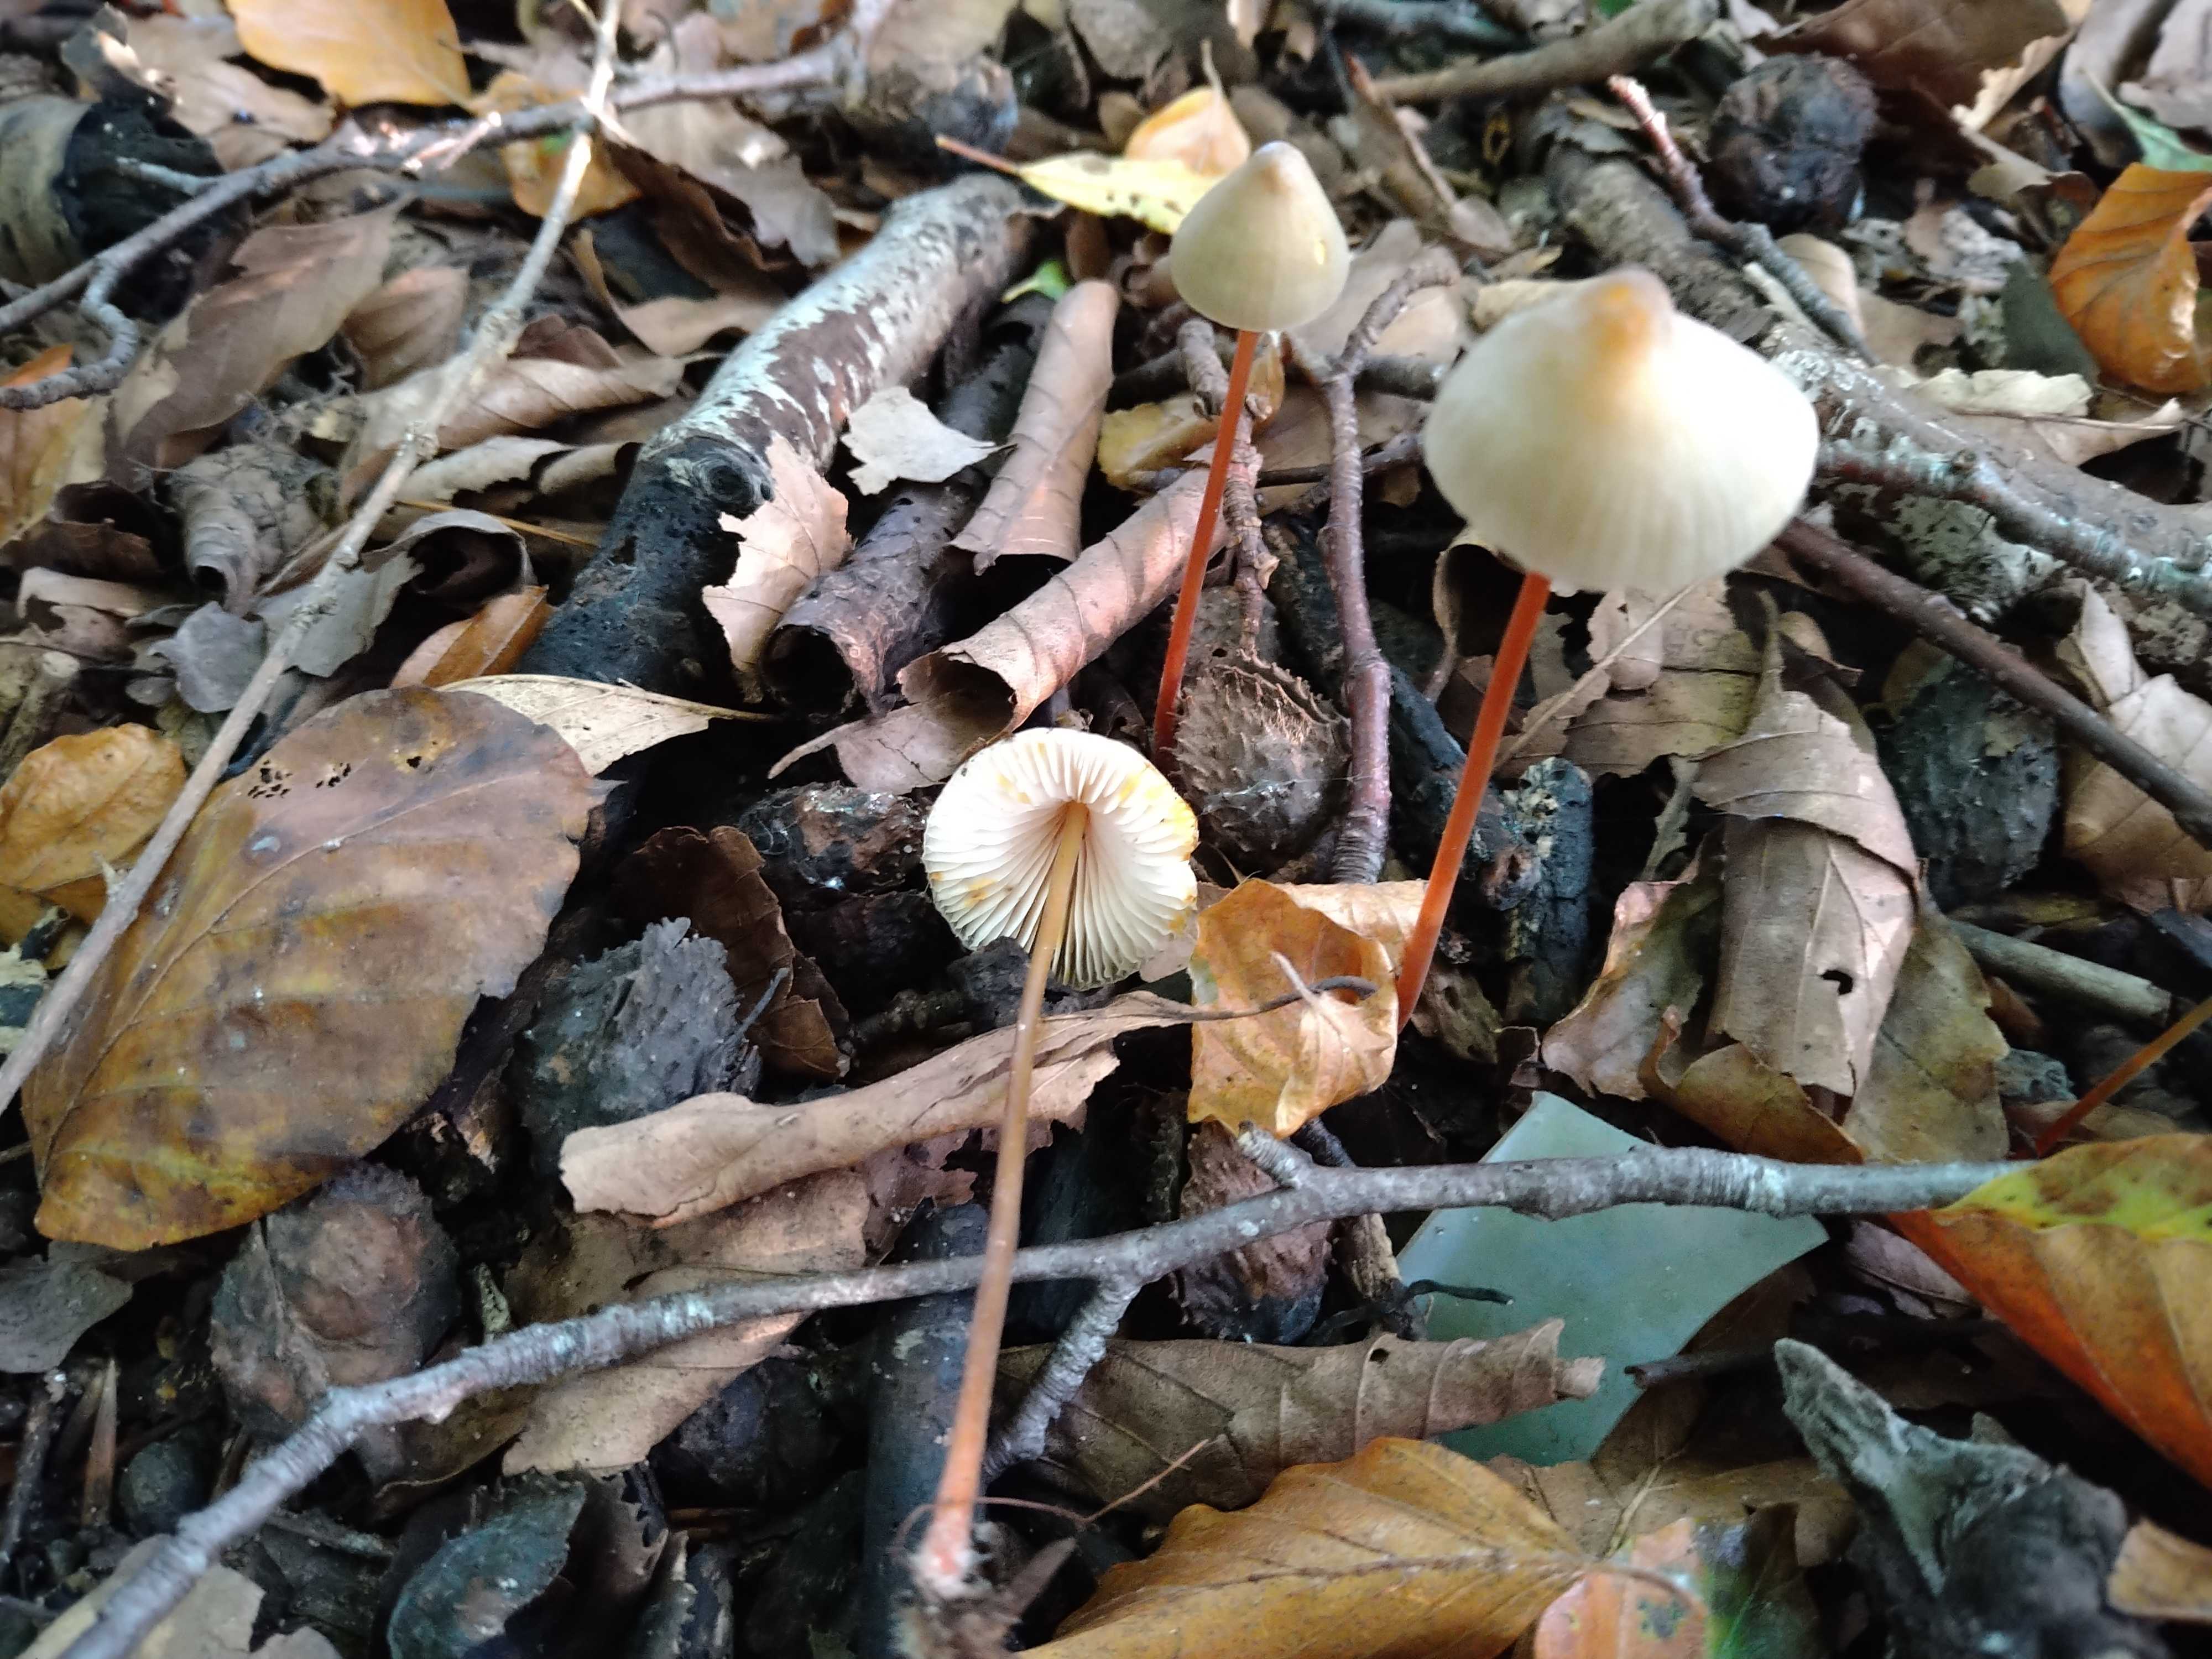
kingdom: Fungi
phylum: Basidiomycota
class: Agaricomycetes
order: Agaricales
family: Mycenaceae
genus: Mycena
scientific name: Mycena crocata
